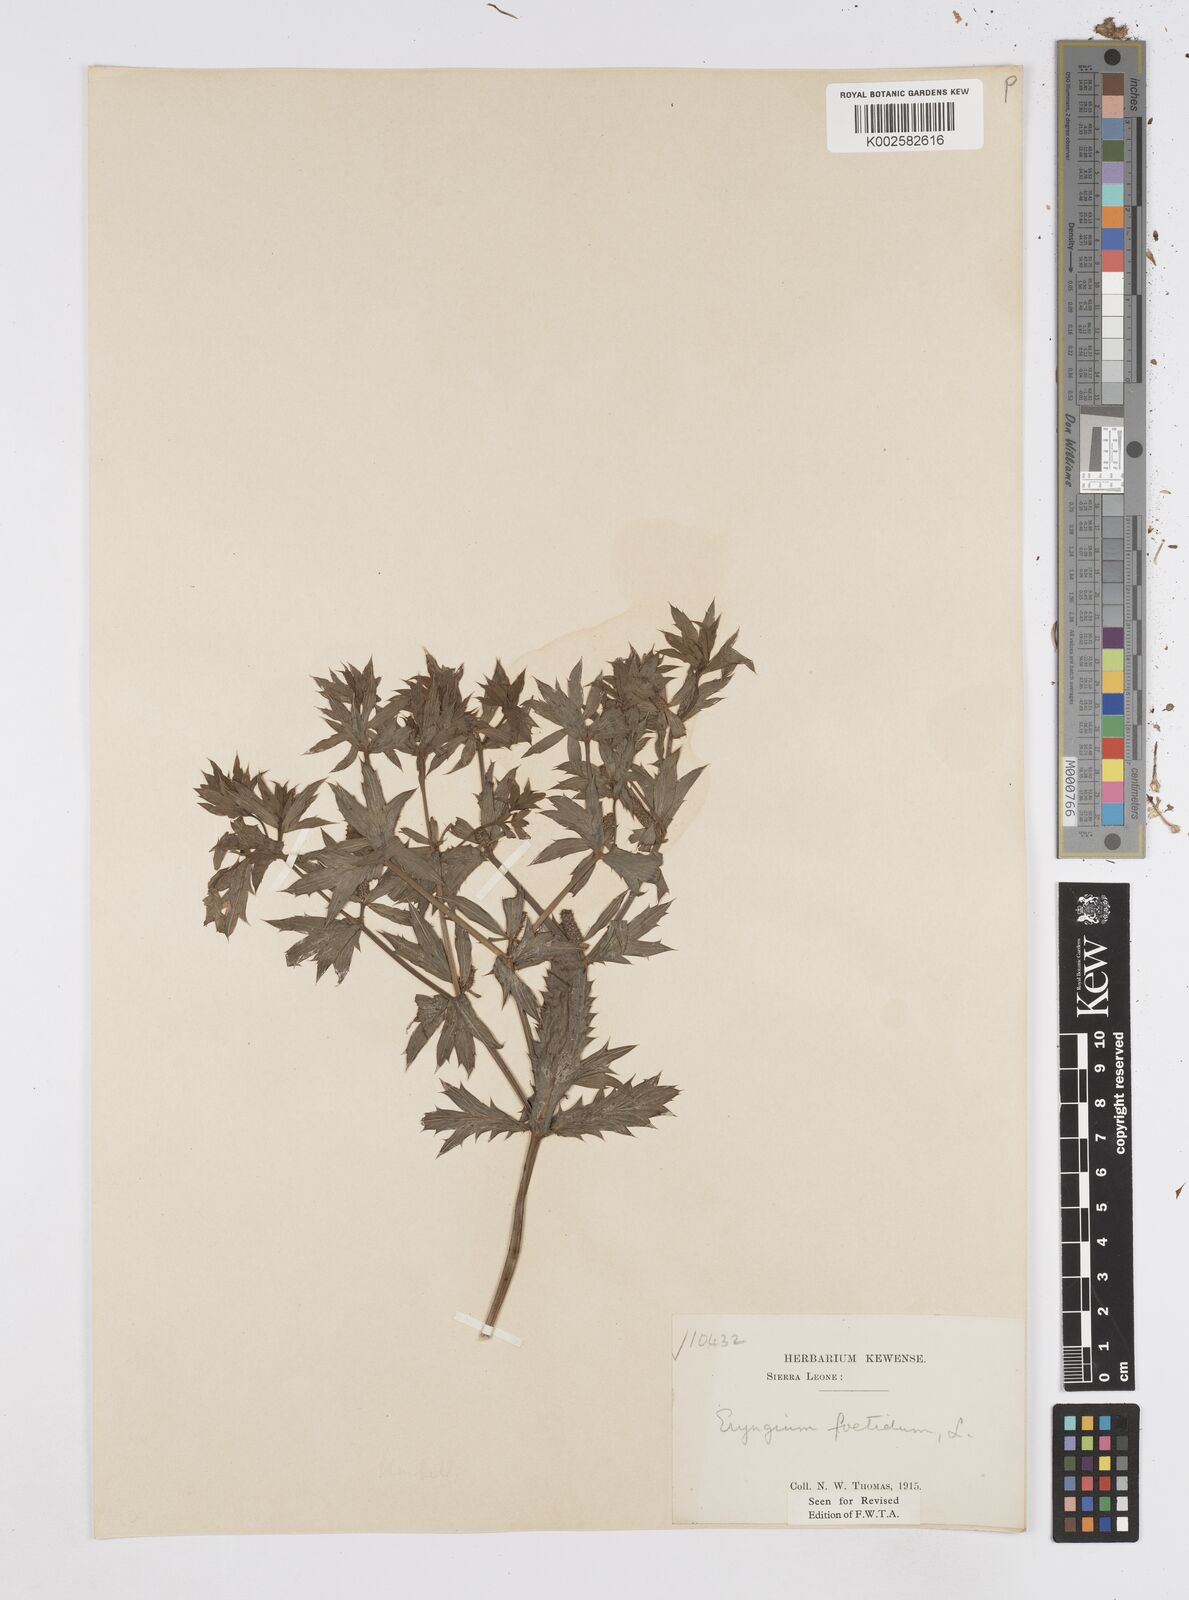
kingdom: Plantae
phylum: Tracheophyta
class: Magnoliopsida
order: Apiales
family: Apiaceae
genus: Eryngium
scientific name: Eryngium foetidum
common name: Fitweed
